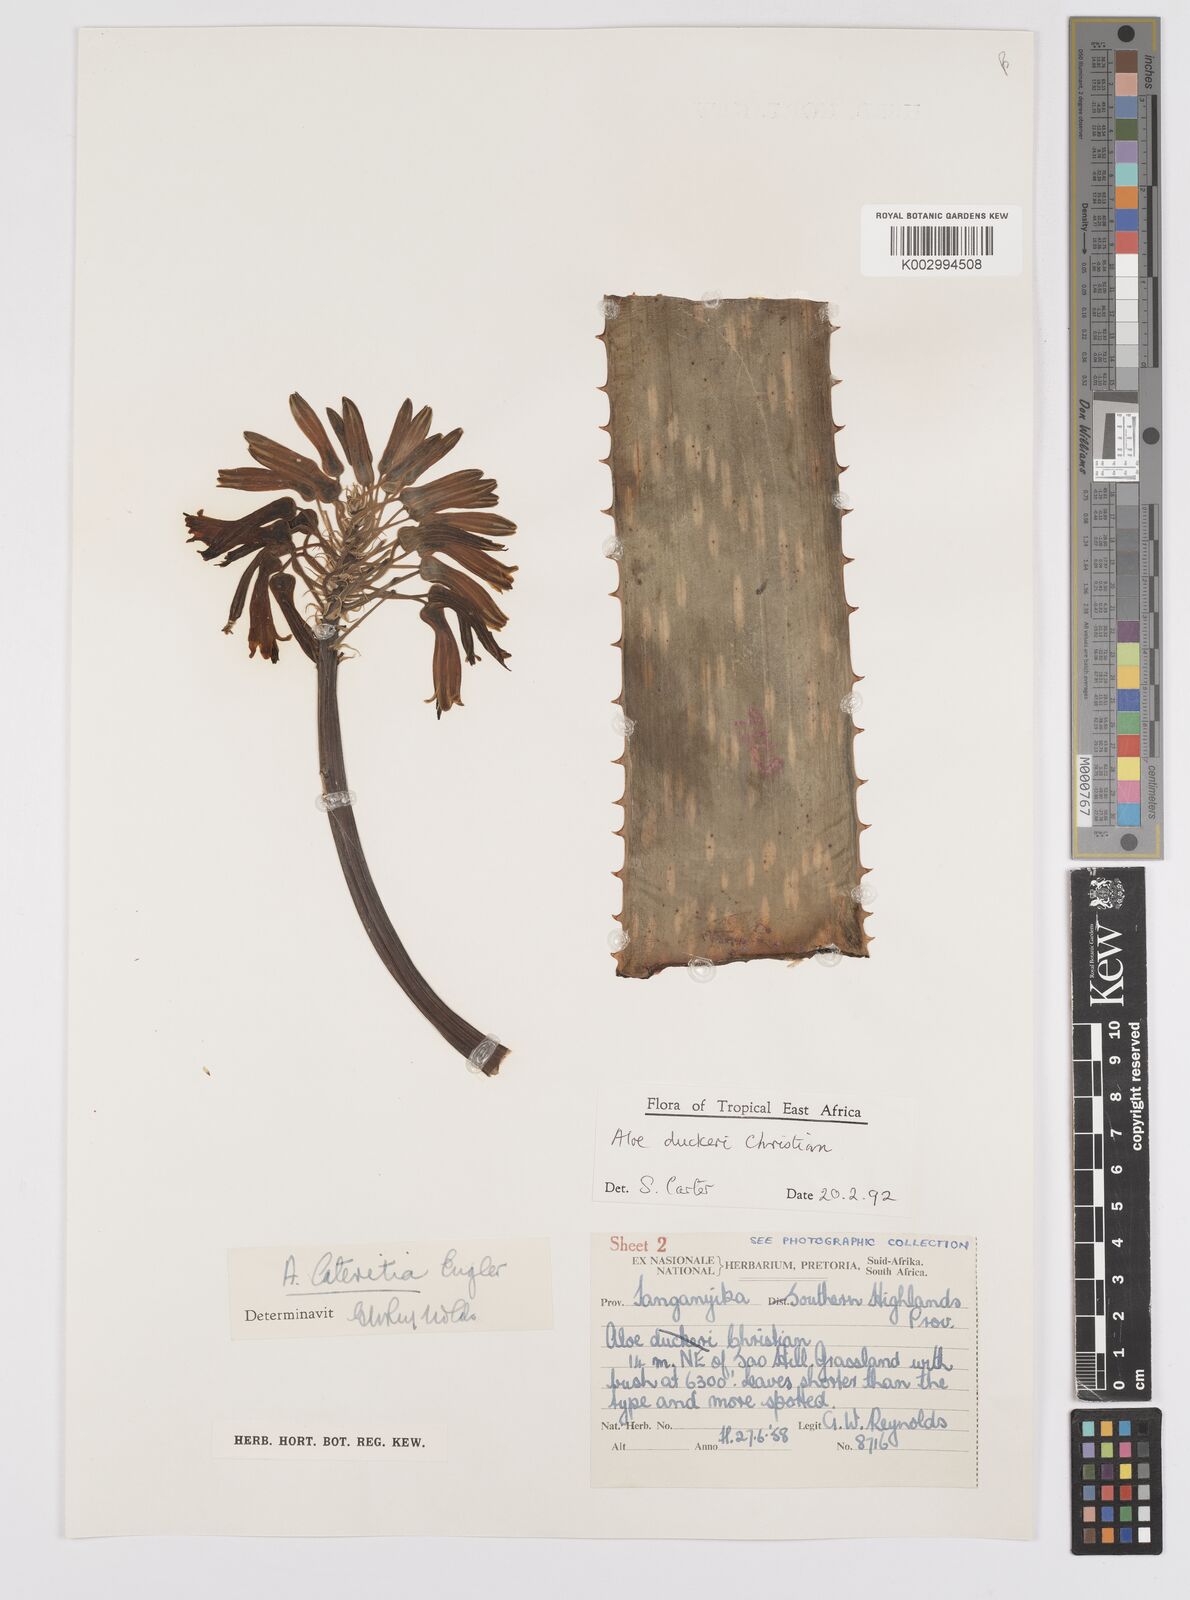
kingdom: Plantae
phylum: Tracheophyta
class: Liliopsida
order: Asparagales
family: Asphodelaceae
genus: Aloe
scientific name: Aloe duckeri
